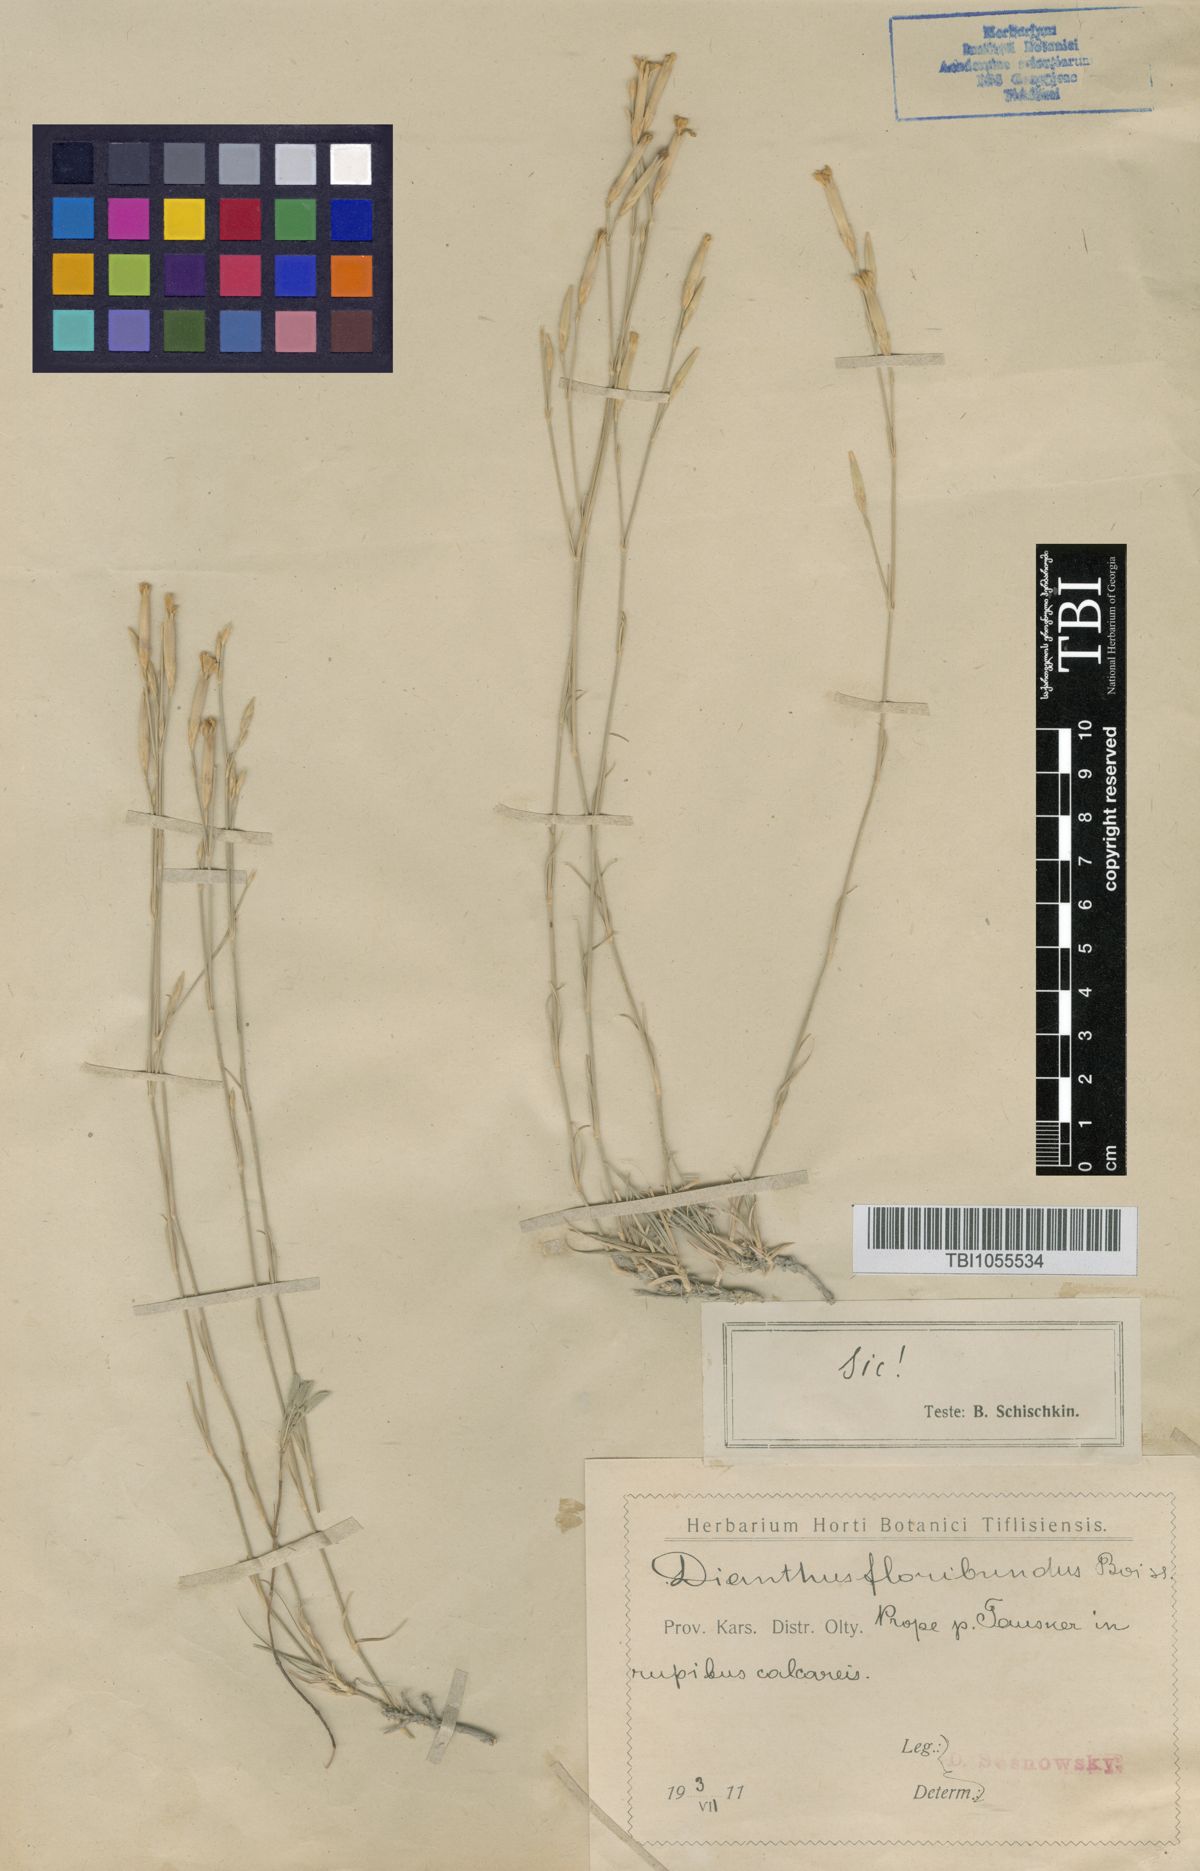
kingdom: Plantae
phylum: Tracheophyta
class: Magnoliopsida
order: Caryophyllales
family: Caryophyllaceae
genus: Dianthus
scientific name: Dianthus floribundus
